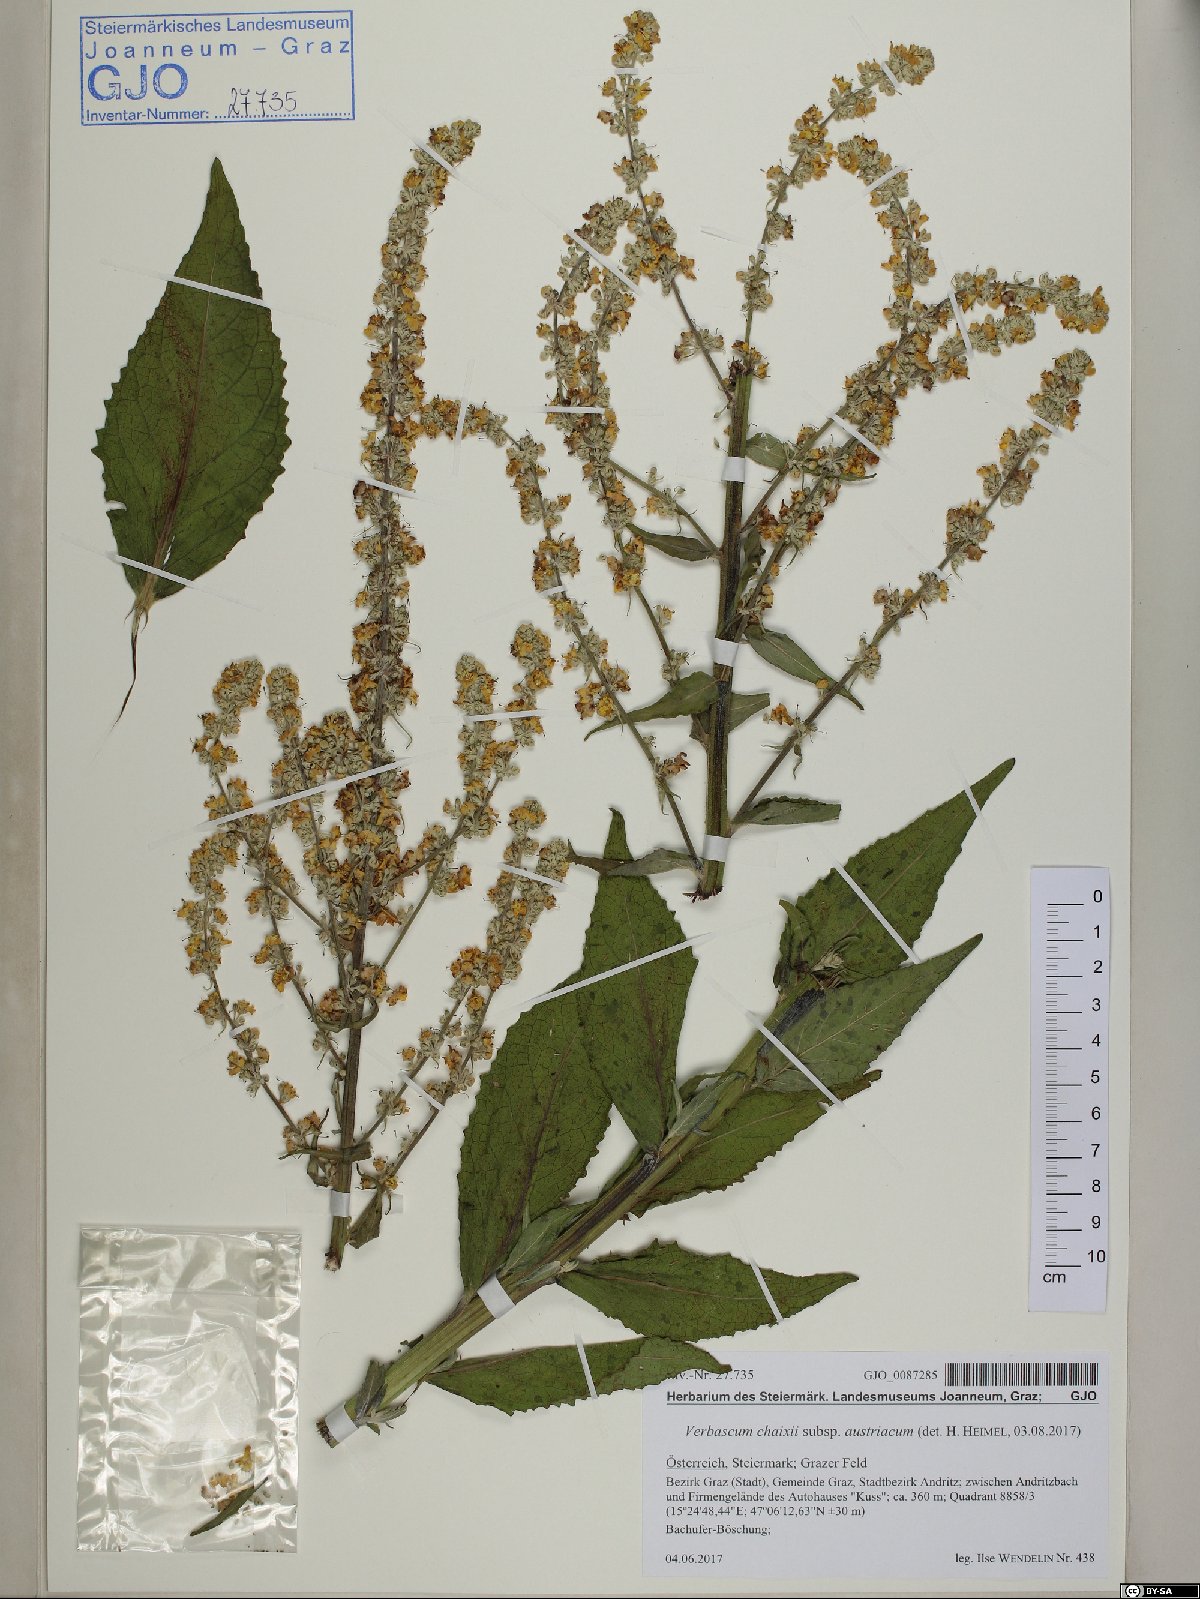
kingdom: Plantae
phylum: Tracheophyta
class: Magnoliopsida
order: Lamiales
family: Scrophulariaceae
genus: Verbascum
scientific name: Verbascum chaixii
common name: Nettle-leaved mullein
